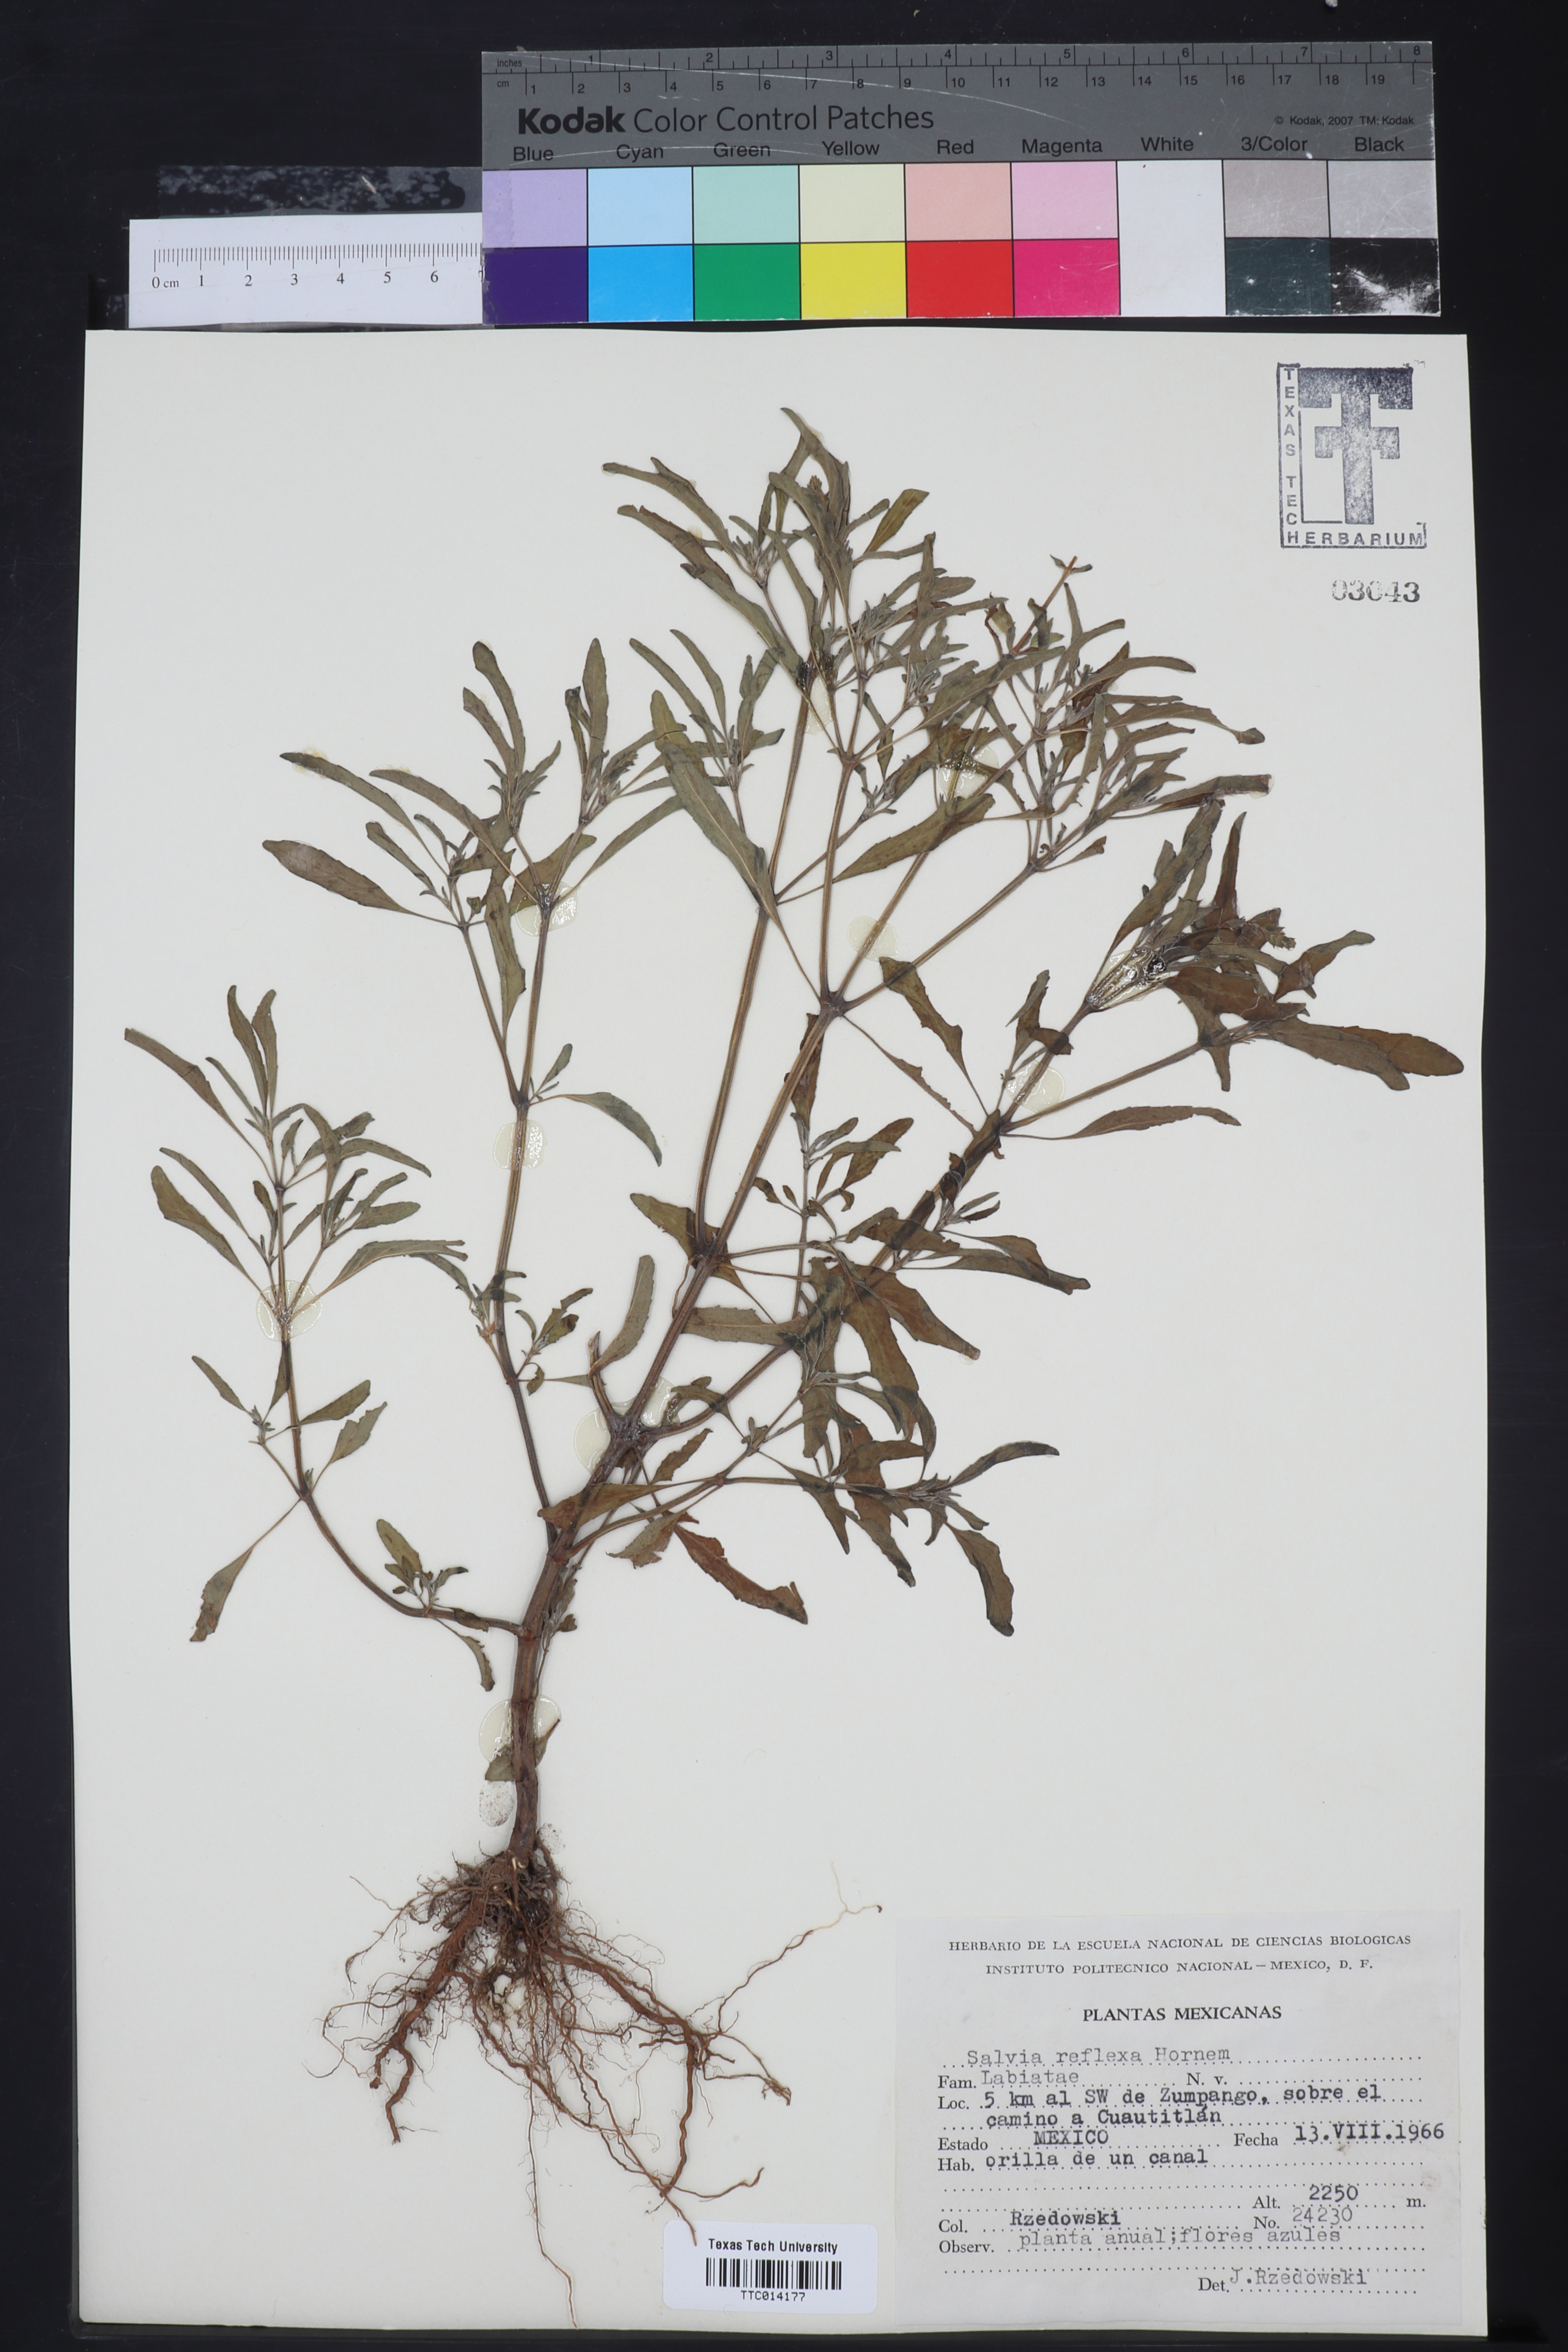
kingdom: Plantae
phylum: Tracheophyta
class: Magnoliopsida
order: Lamiales
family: Lamiaceae
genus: Salvia
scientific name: Salvia reflexa
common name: Mintweed
